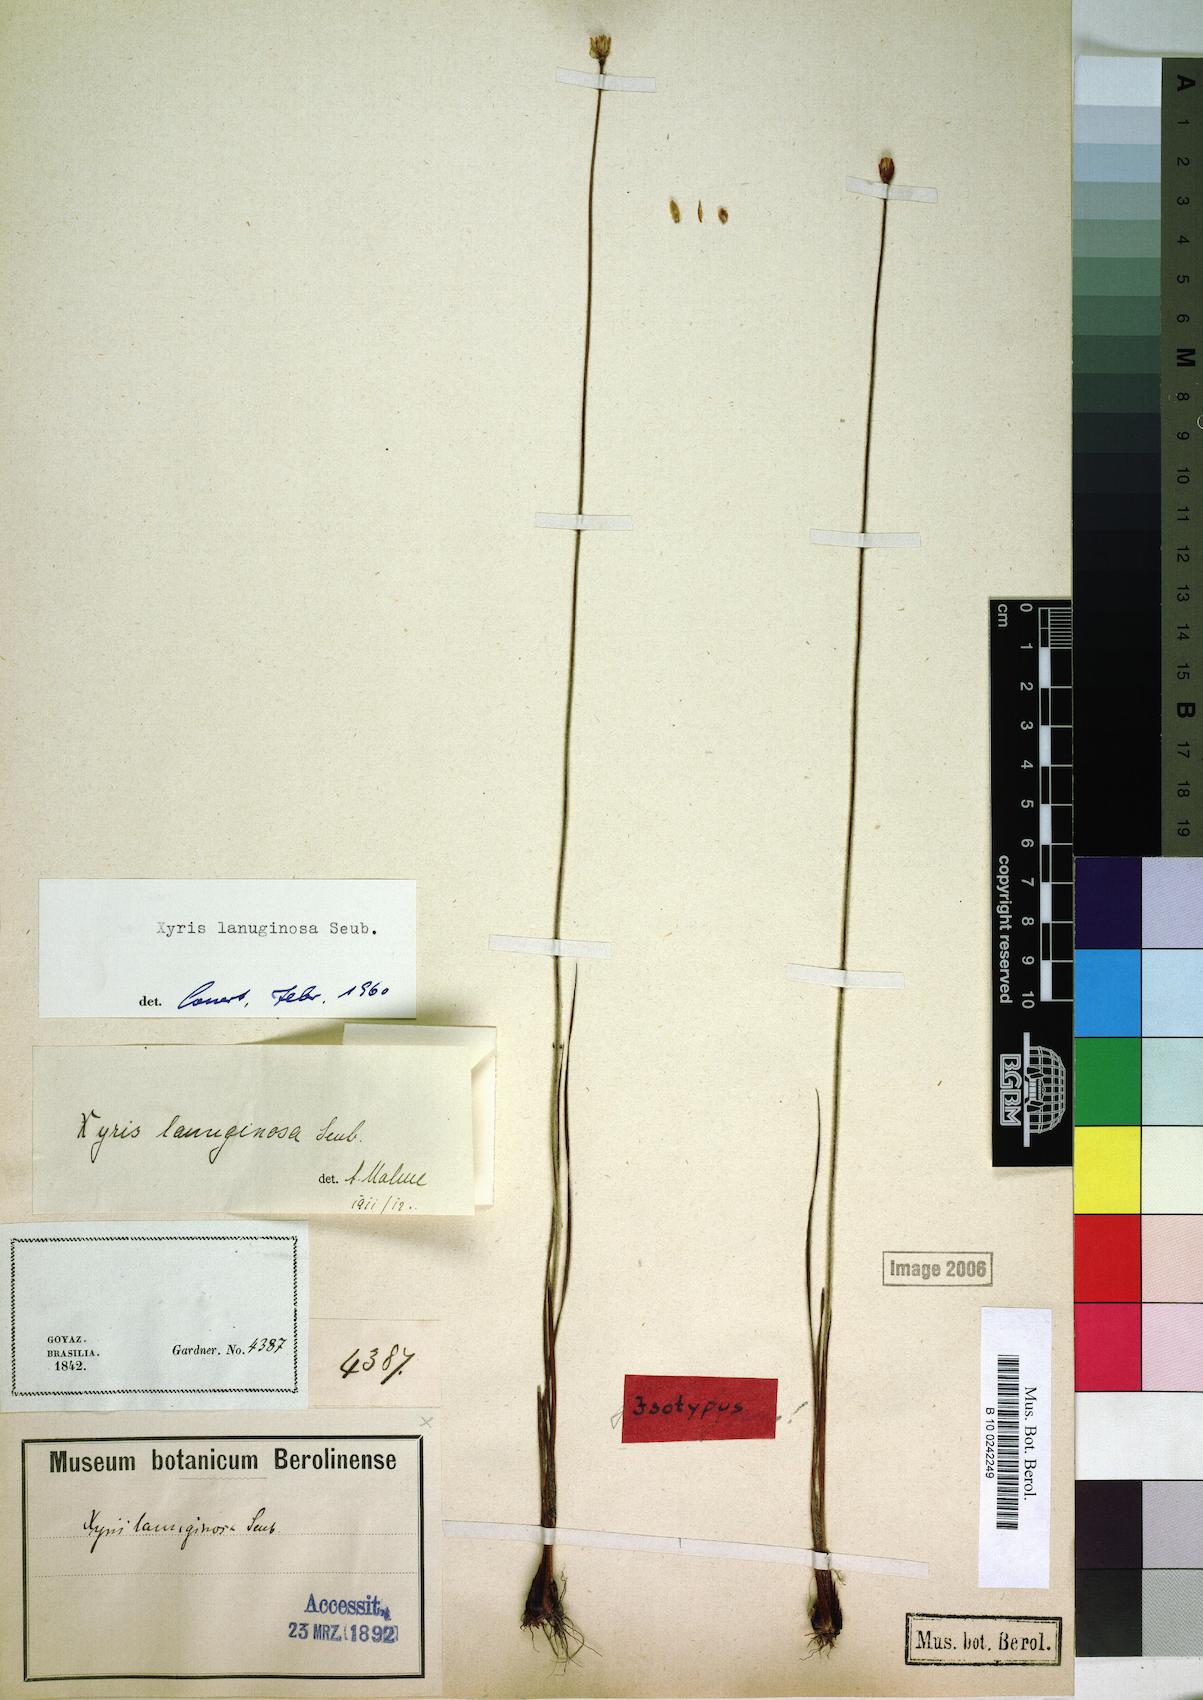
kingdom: Plantae
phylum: Tracheophyta
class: Liliopsida
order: Poales
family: Xyridaceae
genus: Xyris
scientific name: Xyris lanuginosa
